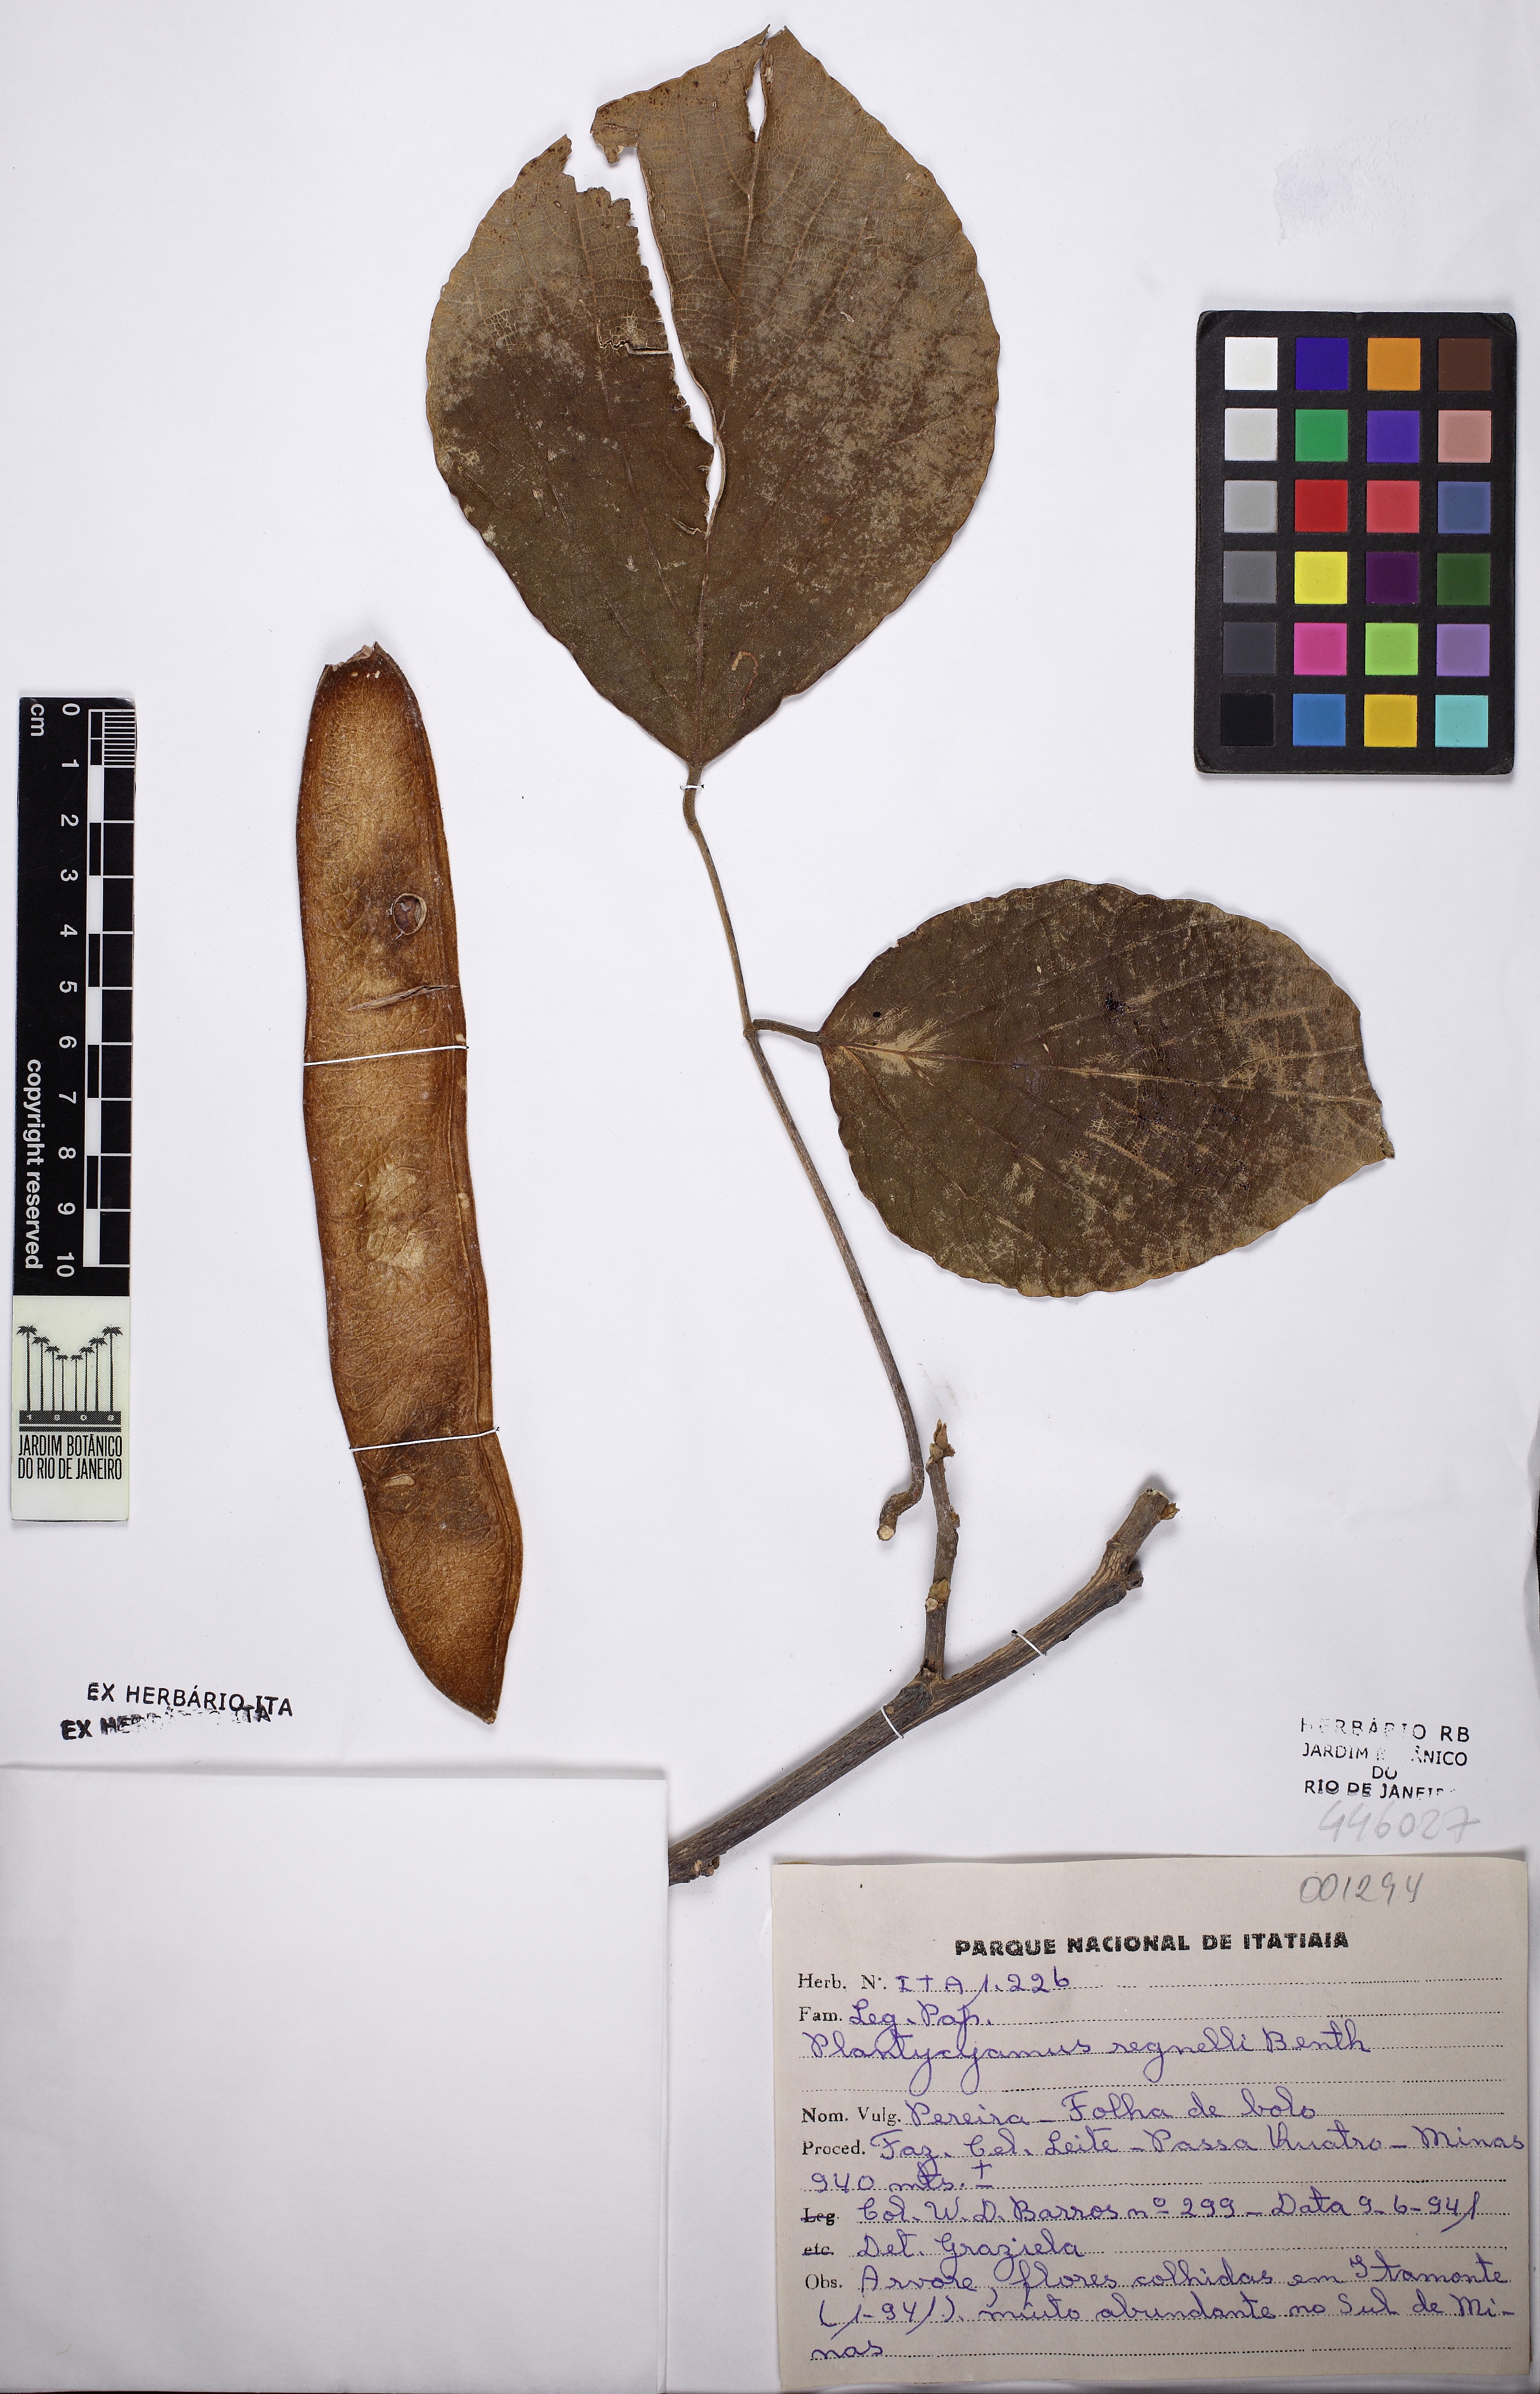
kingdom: Plantae
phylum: Tracheophyta
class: Magnoliopsida
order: Fabales
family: Fabaceae
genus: Platycyamus
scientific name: Platycyamus regnellii
